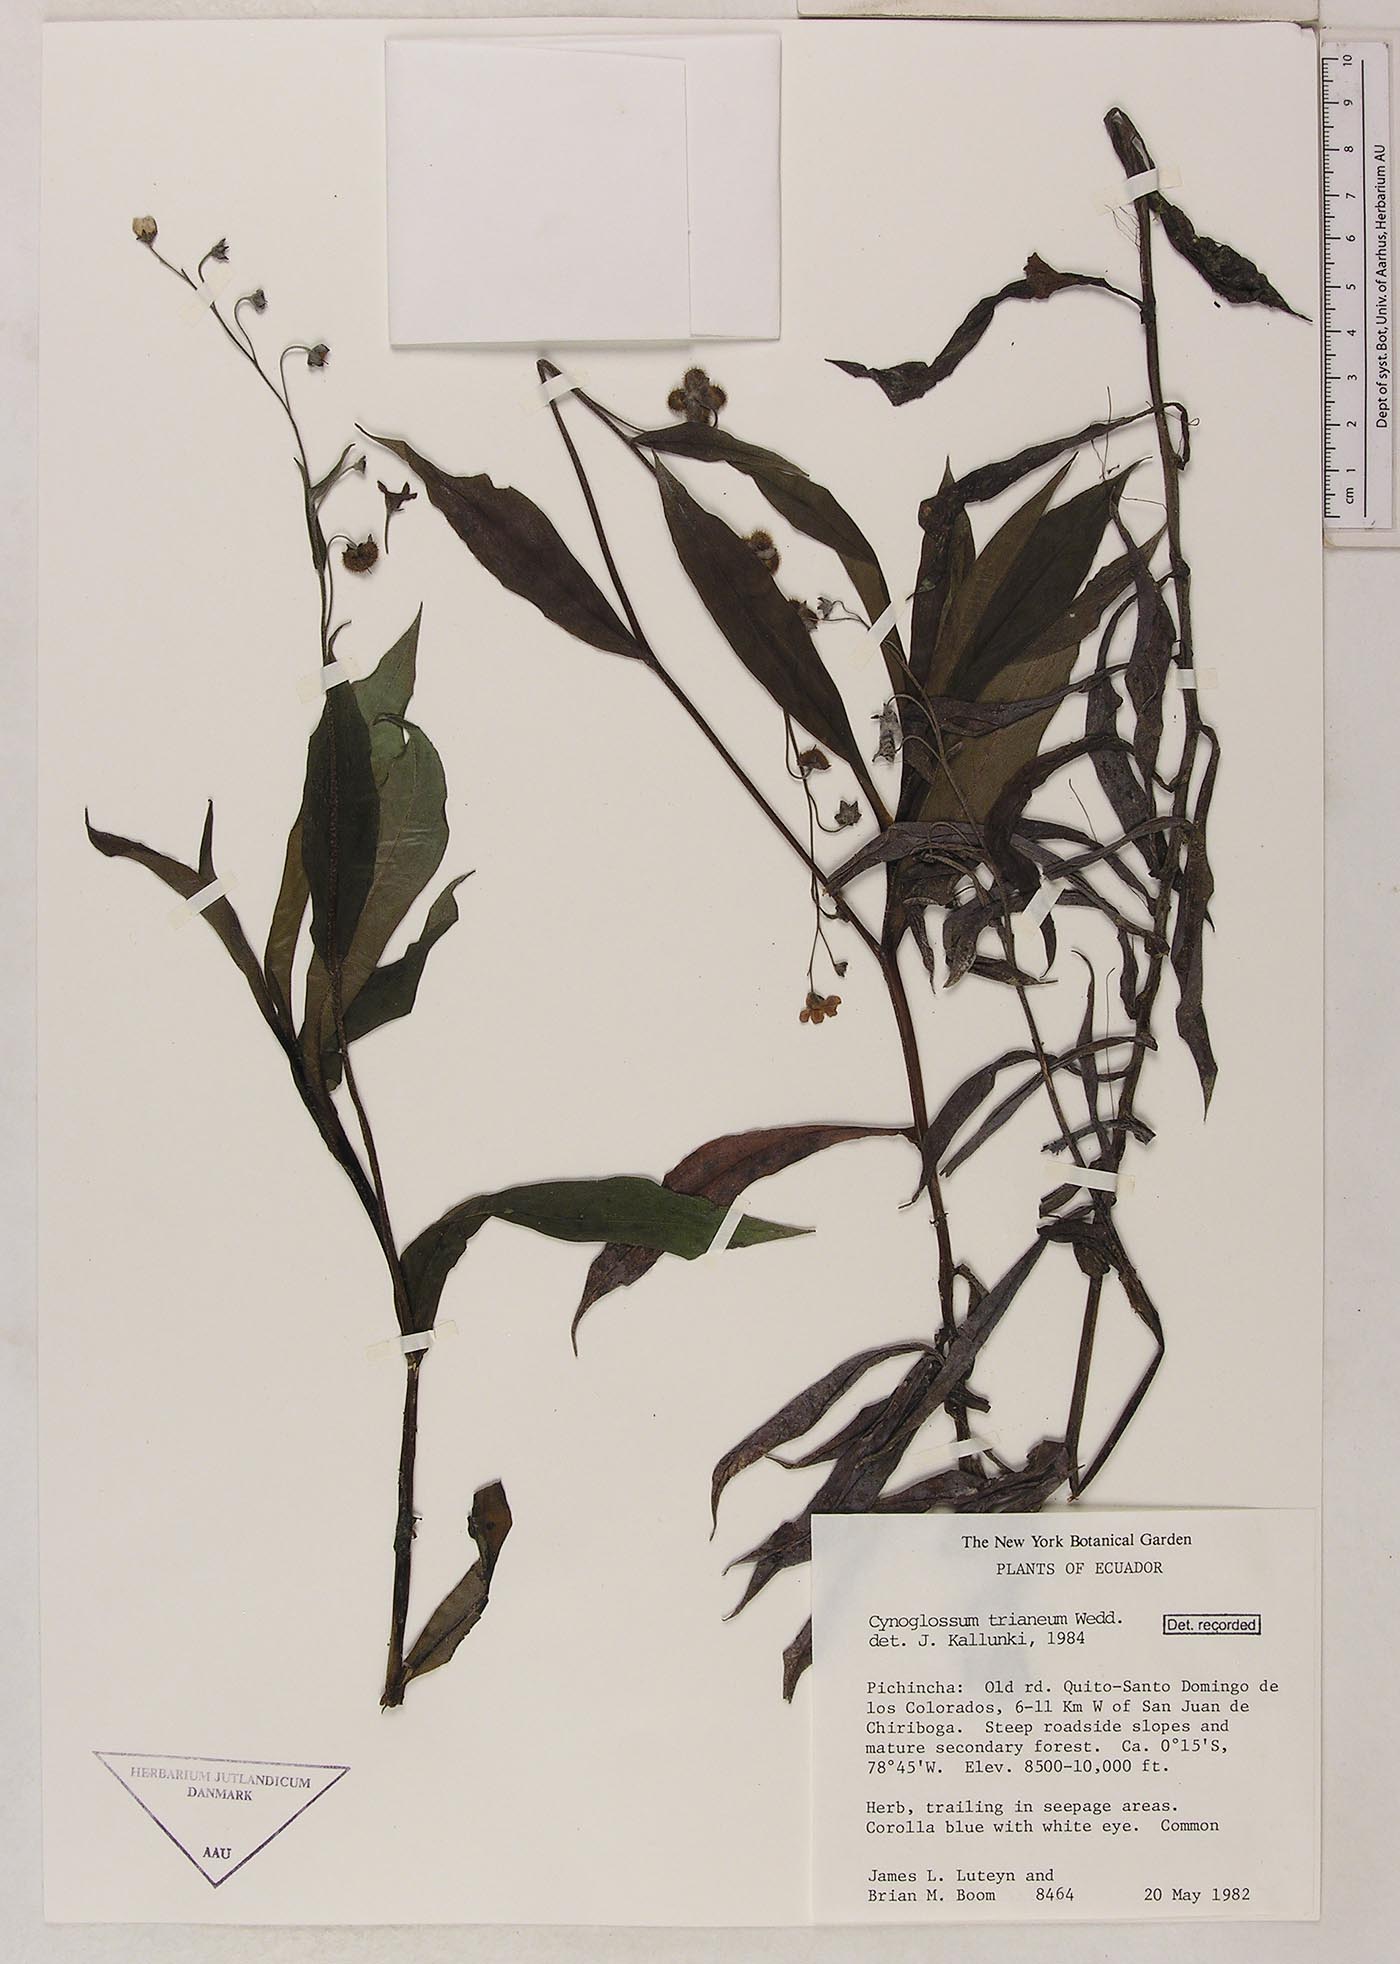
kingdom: Plantae
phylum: Tracheophyta
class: Magnoliopsida
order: Boraginales
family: Boraginaceae
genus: Selkirkia
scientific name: Selkirkia trianaeum
